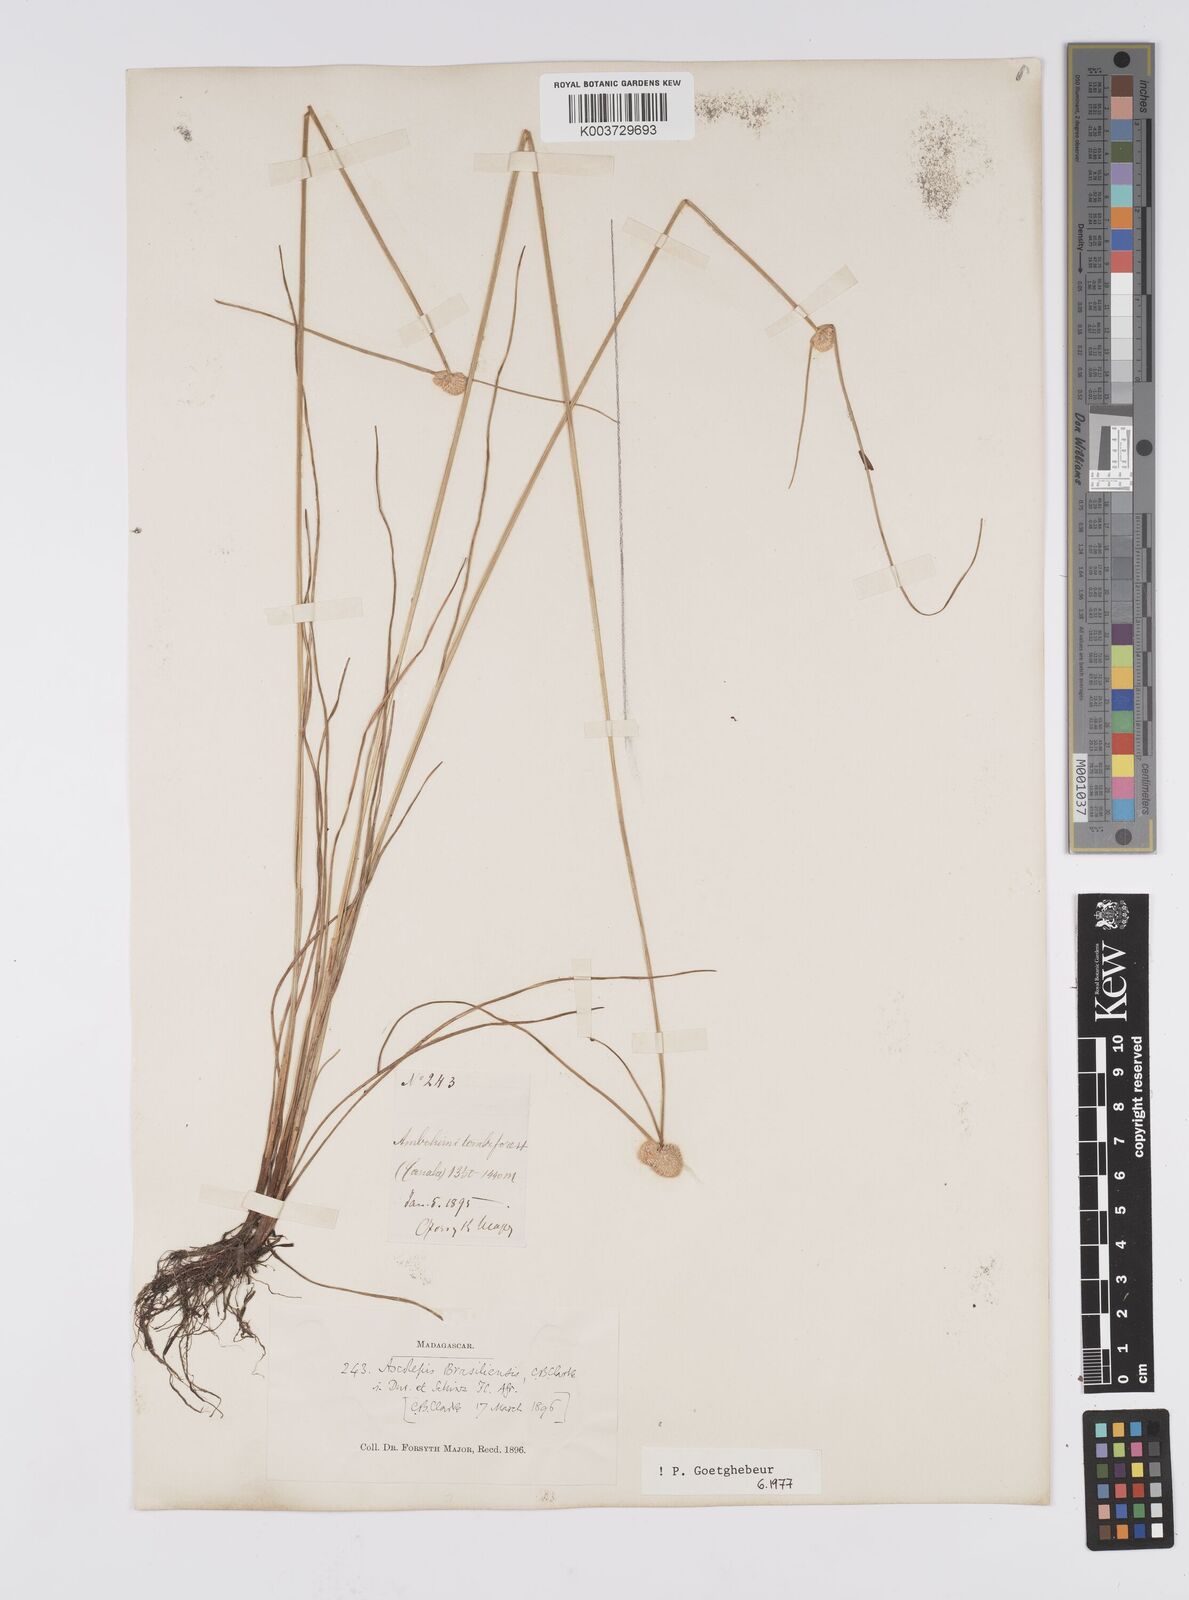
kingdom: Plantae
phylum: Tracheophyta
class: Liliopsida
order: Poales
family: Cyperaceae
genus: Cyperus
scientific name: Cyperus brasiliensis
